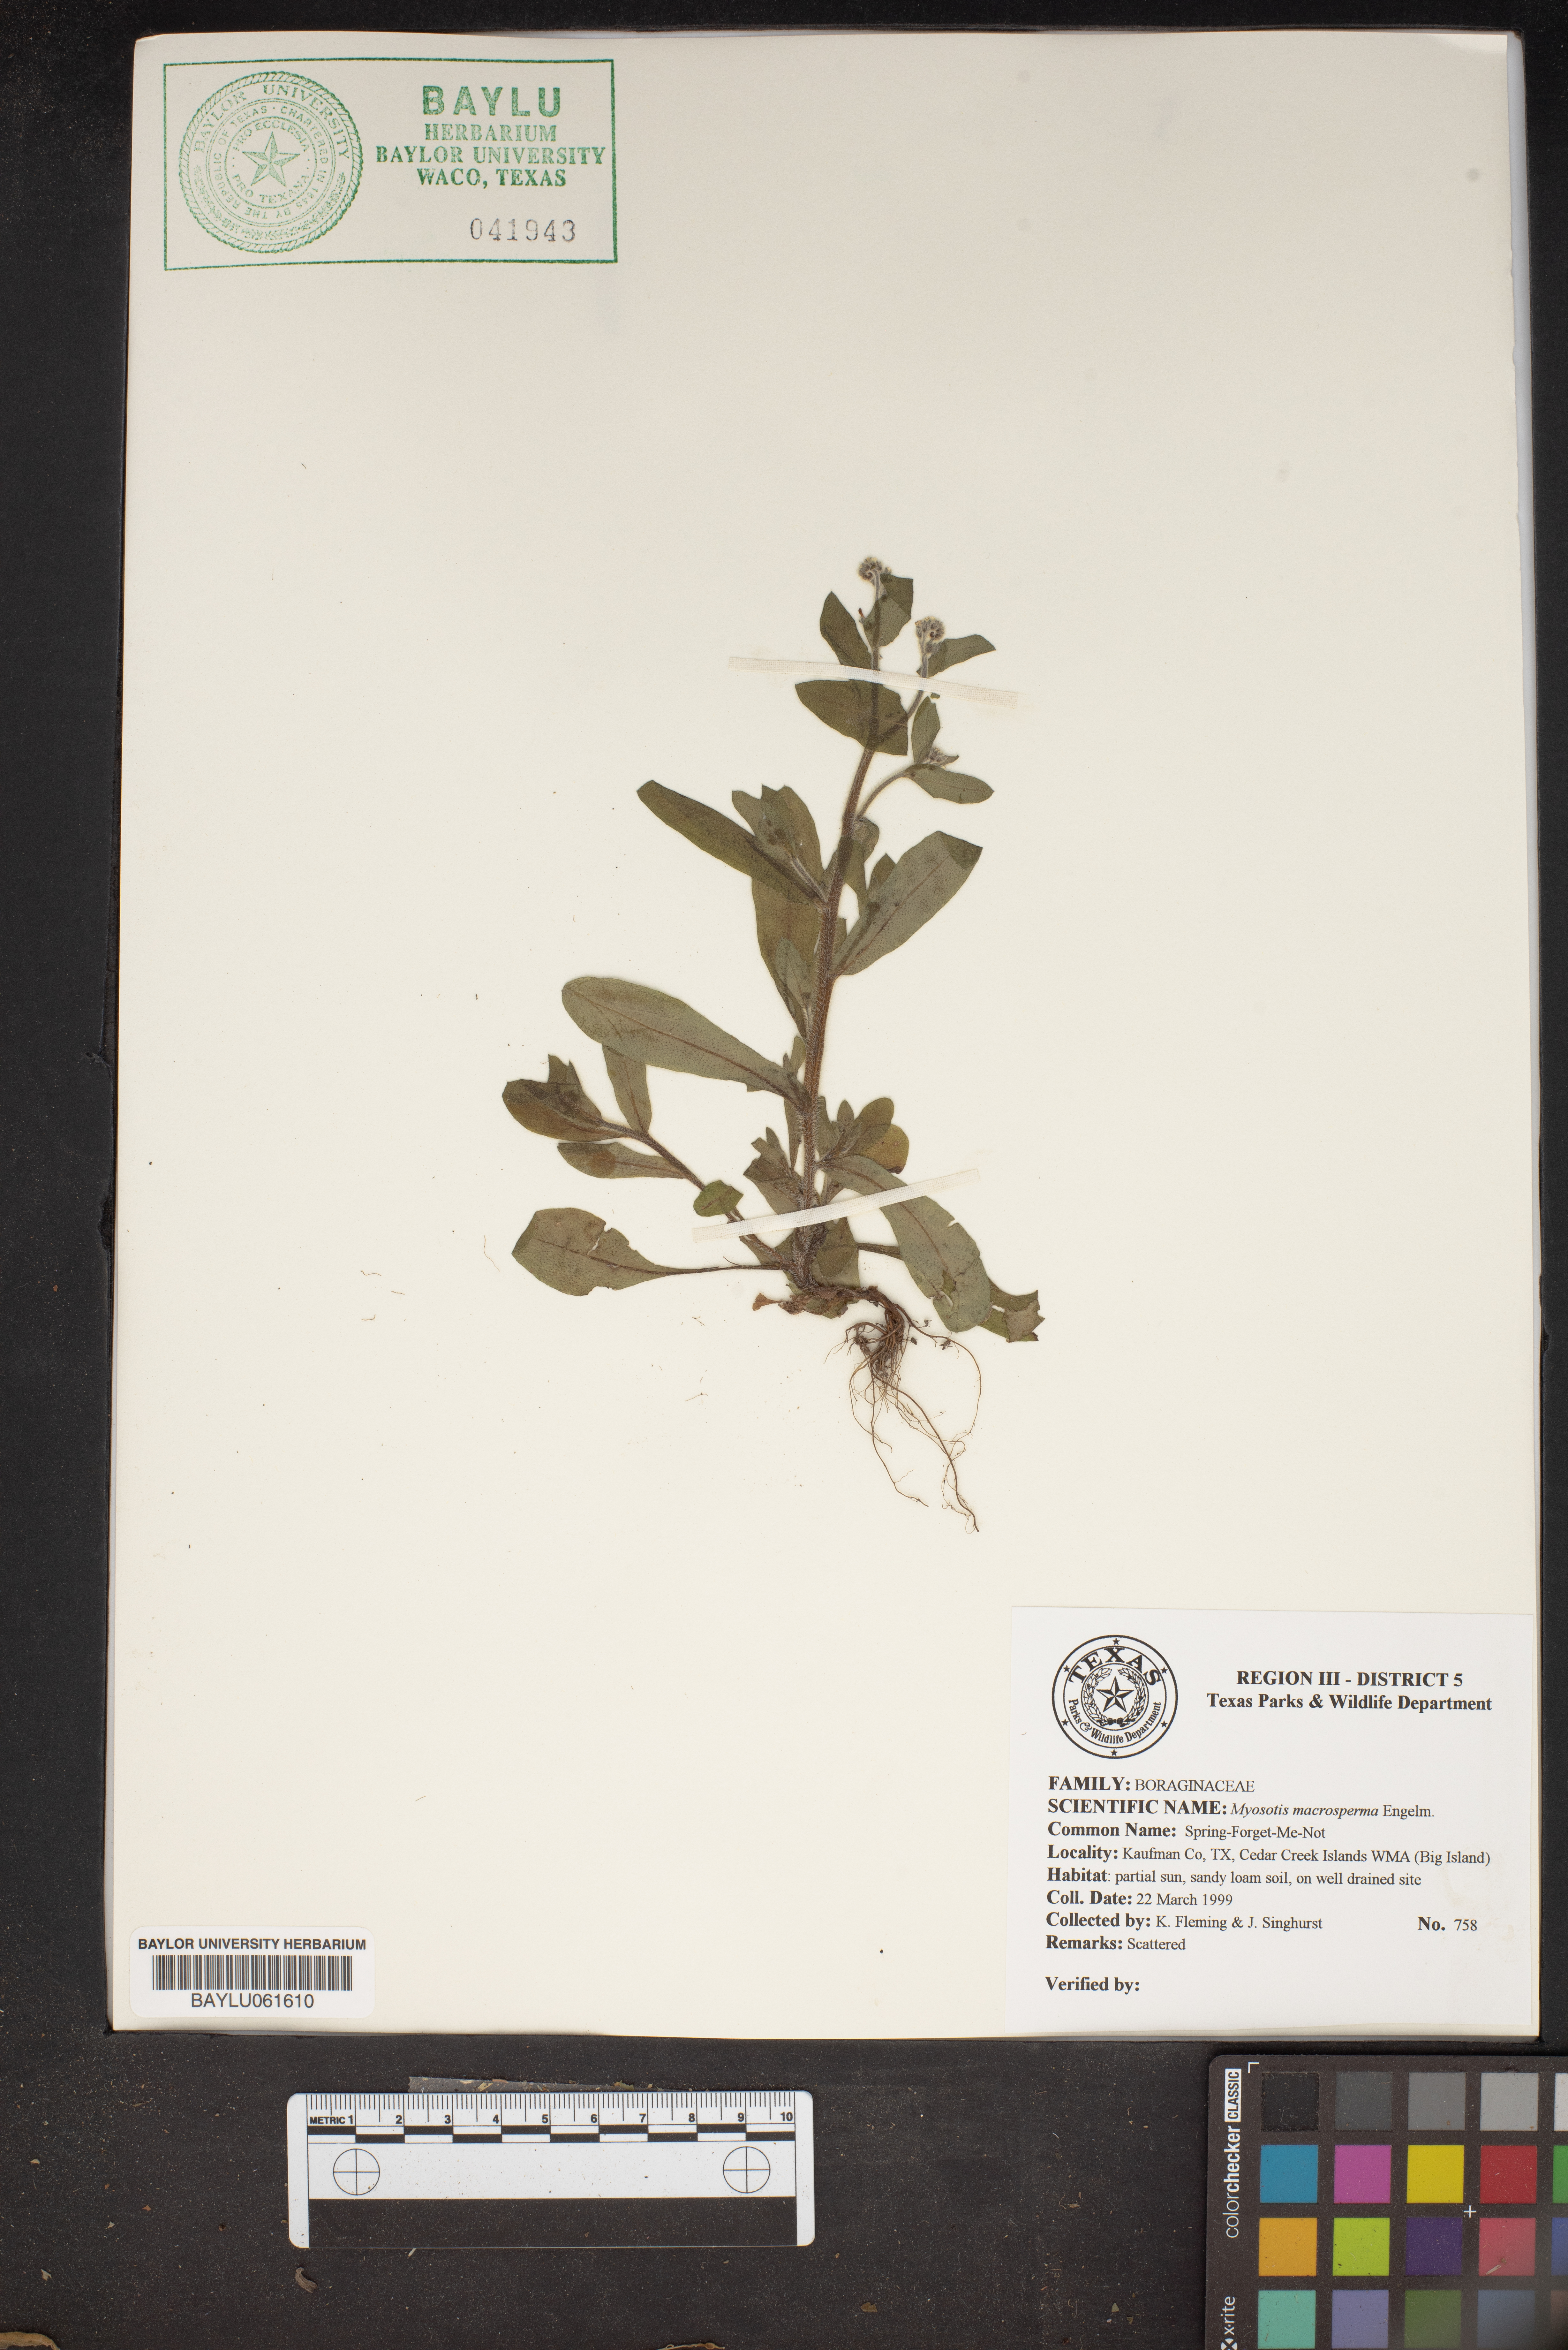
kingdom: Plantae
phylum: Tracheophyta
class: Magnoliopsida
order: Boraginales
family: Boraginaceae
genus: Myosotis
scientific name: Myosotis macrosperma
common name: Large-seed forget-me-not
